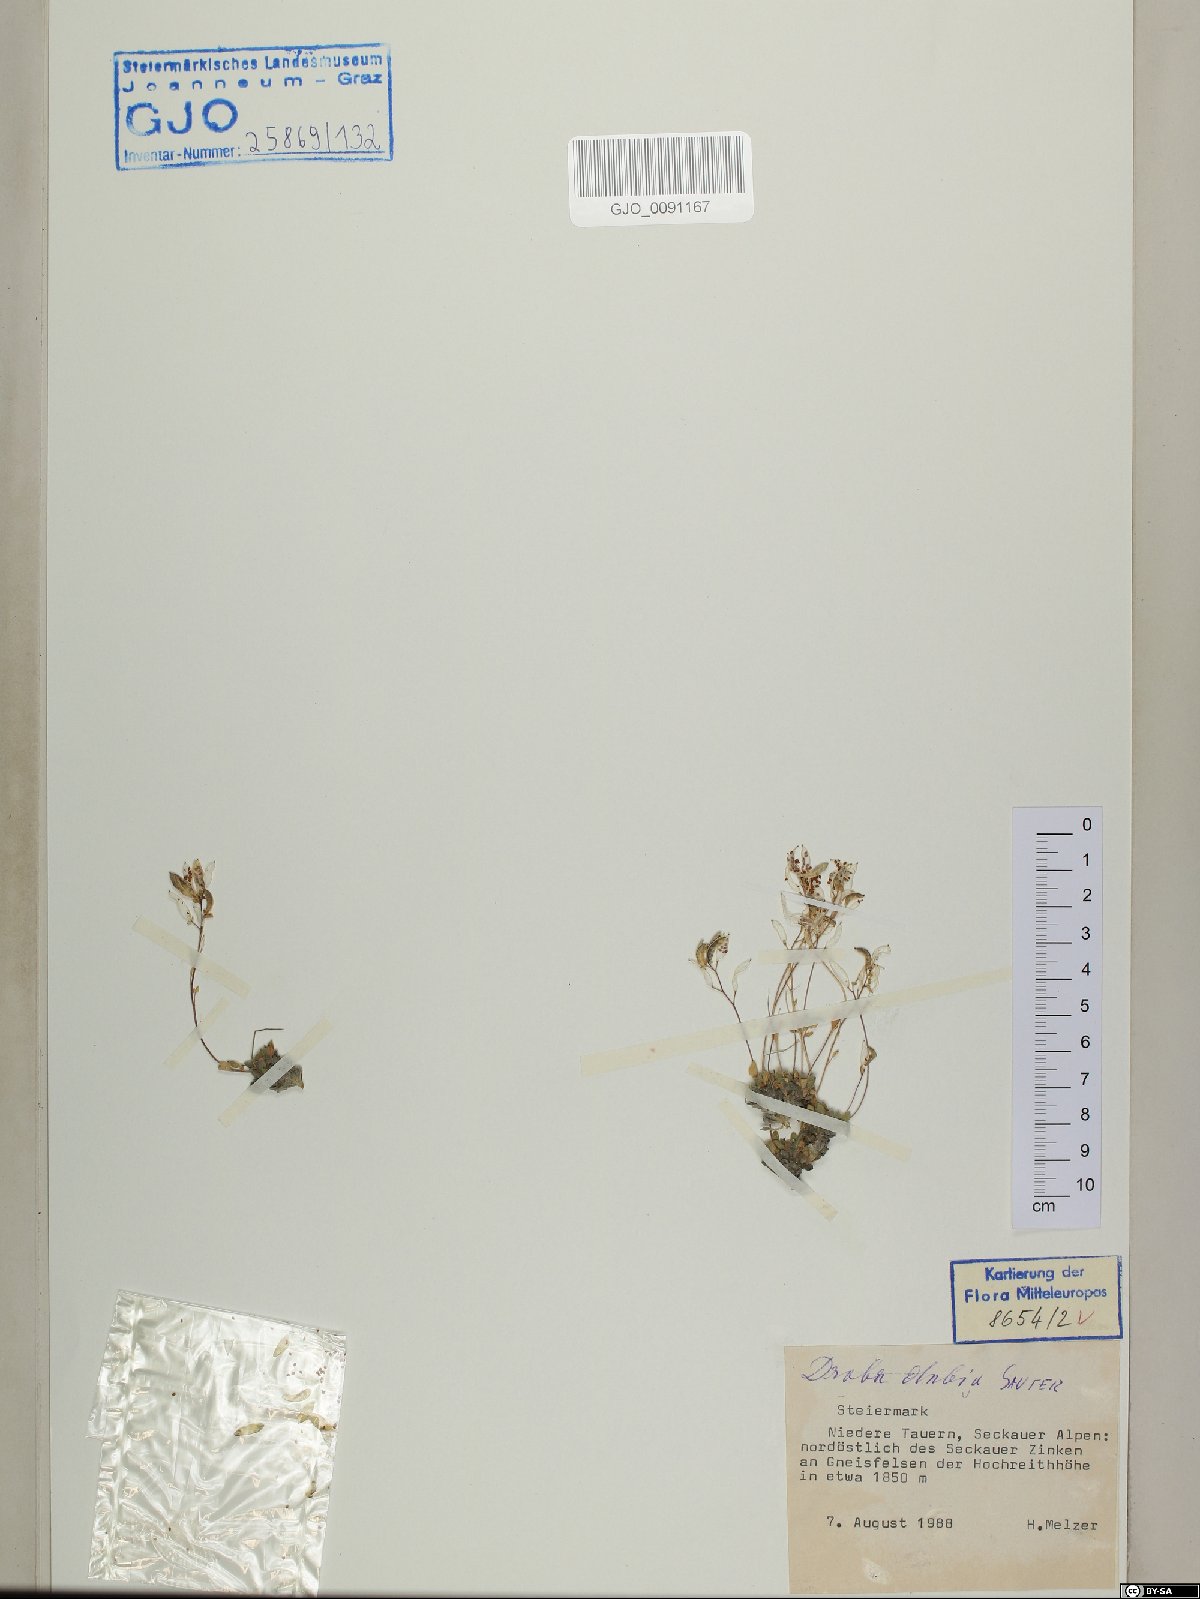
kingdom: Plantae
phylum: Tracheophyta
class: Magnoliopsida
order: Brassicales
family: Brassicaceae
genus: Draba
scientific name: Draba dubia
